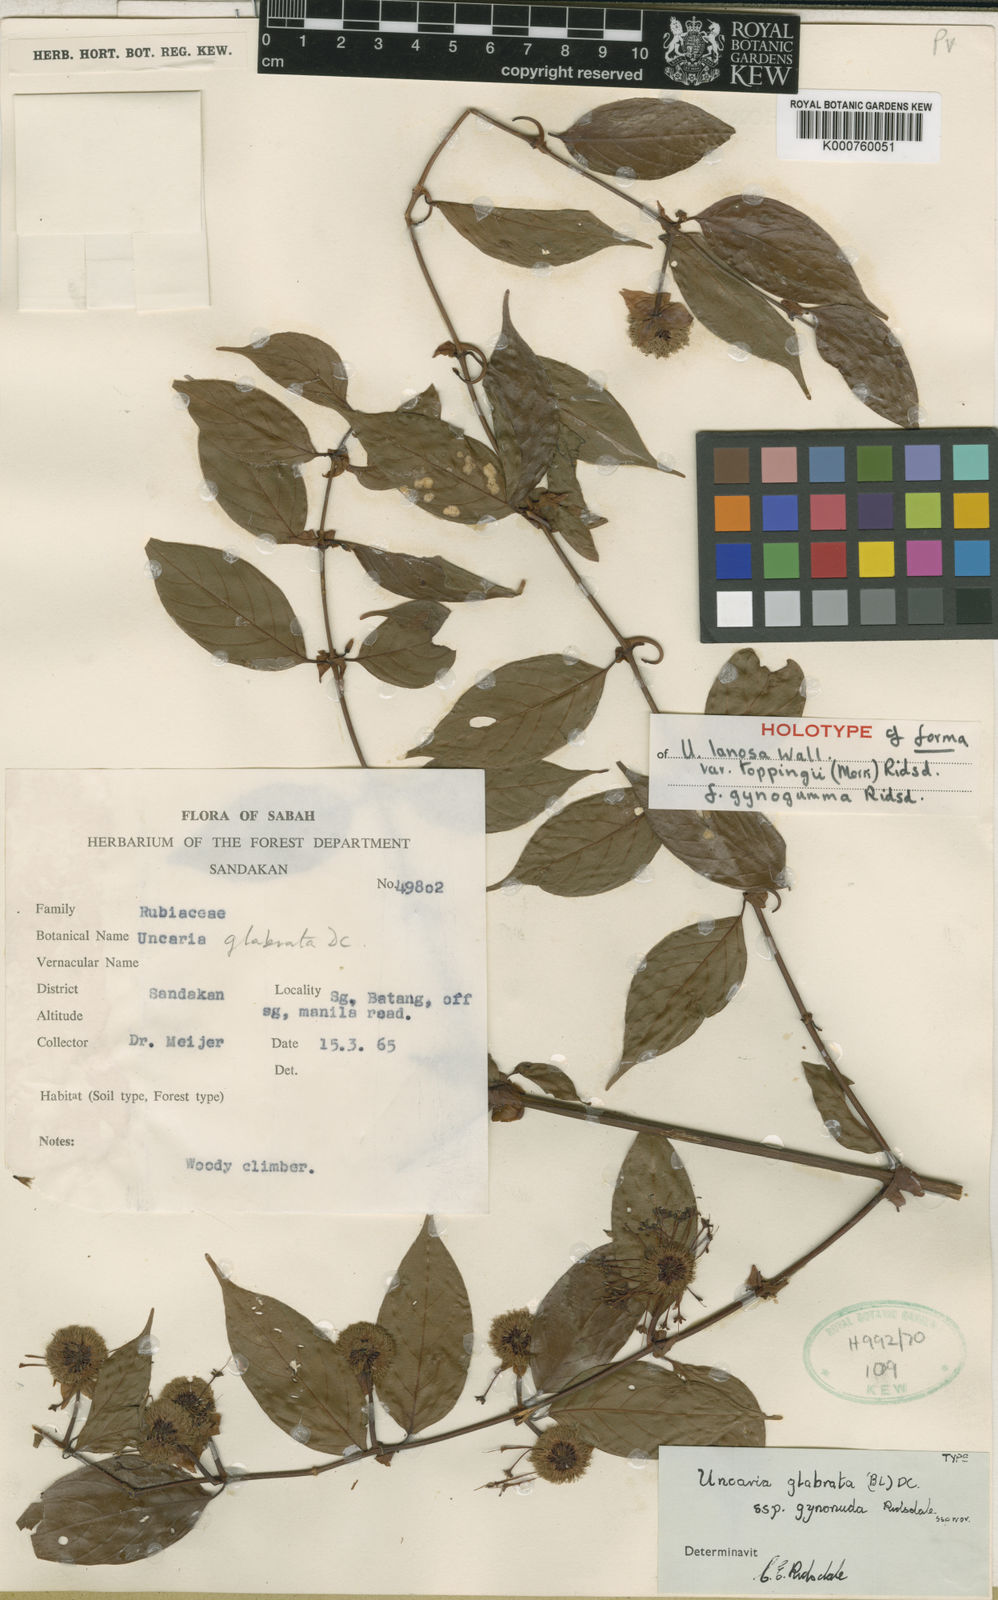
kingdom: Plantae
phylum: Tracheophyta
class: Magnoliopsida
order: Gentianales
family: Rubiaceae
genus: Uncaria
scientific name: Uncaria lanosa
